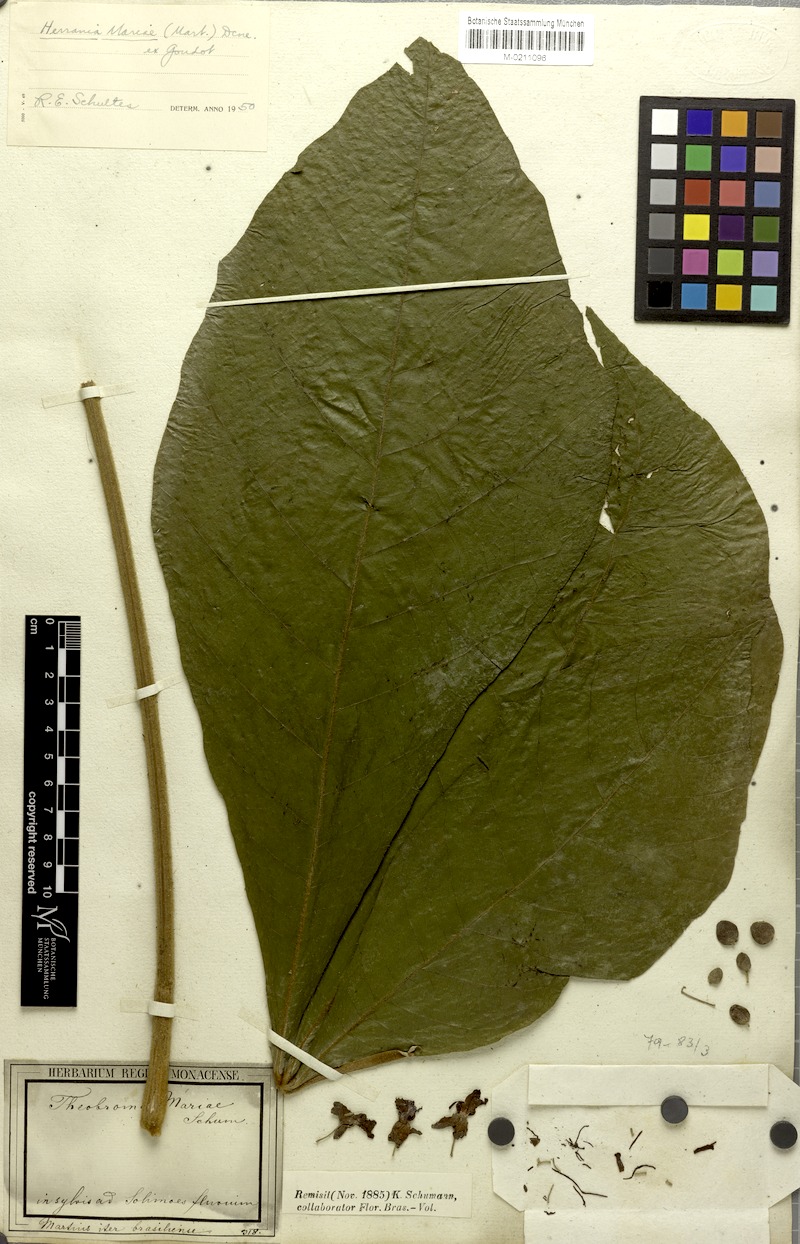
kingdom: Plantae
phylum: Tracheophyta
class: Magnoliopsida
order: Malvales
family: Malvaceae
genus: Abroma
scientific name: Abroma augustum
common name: Devil's-cotton
